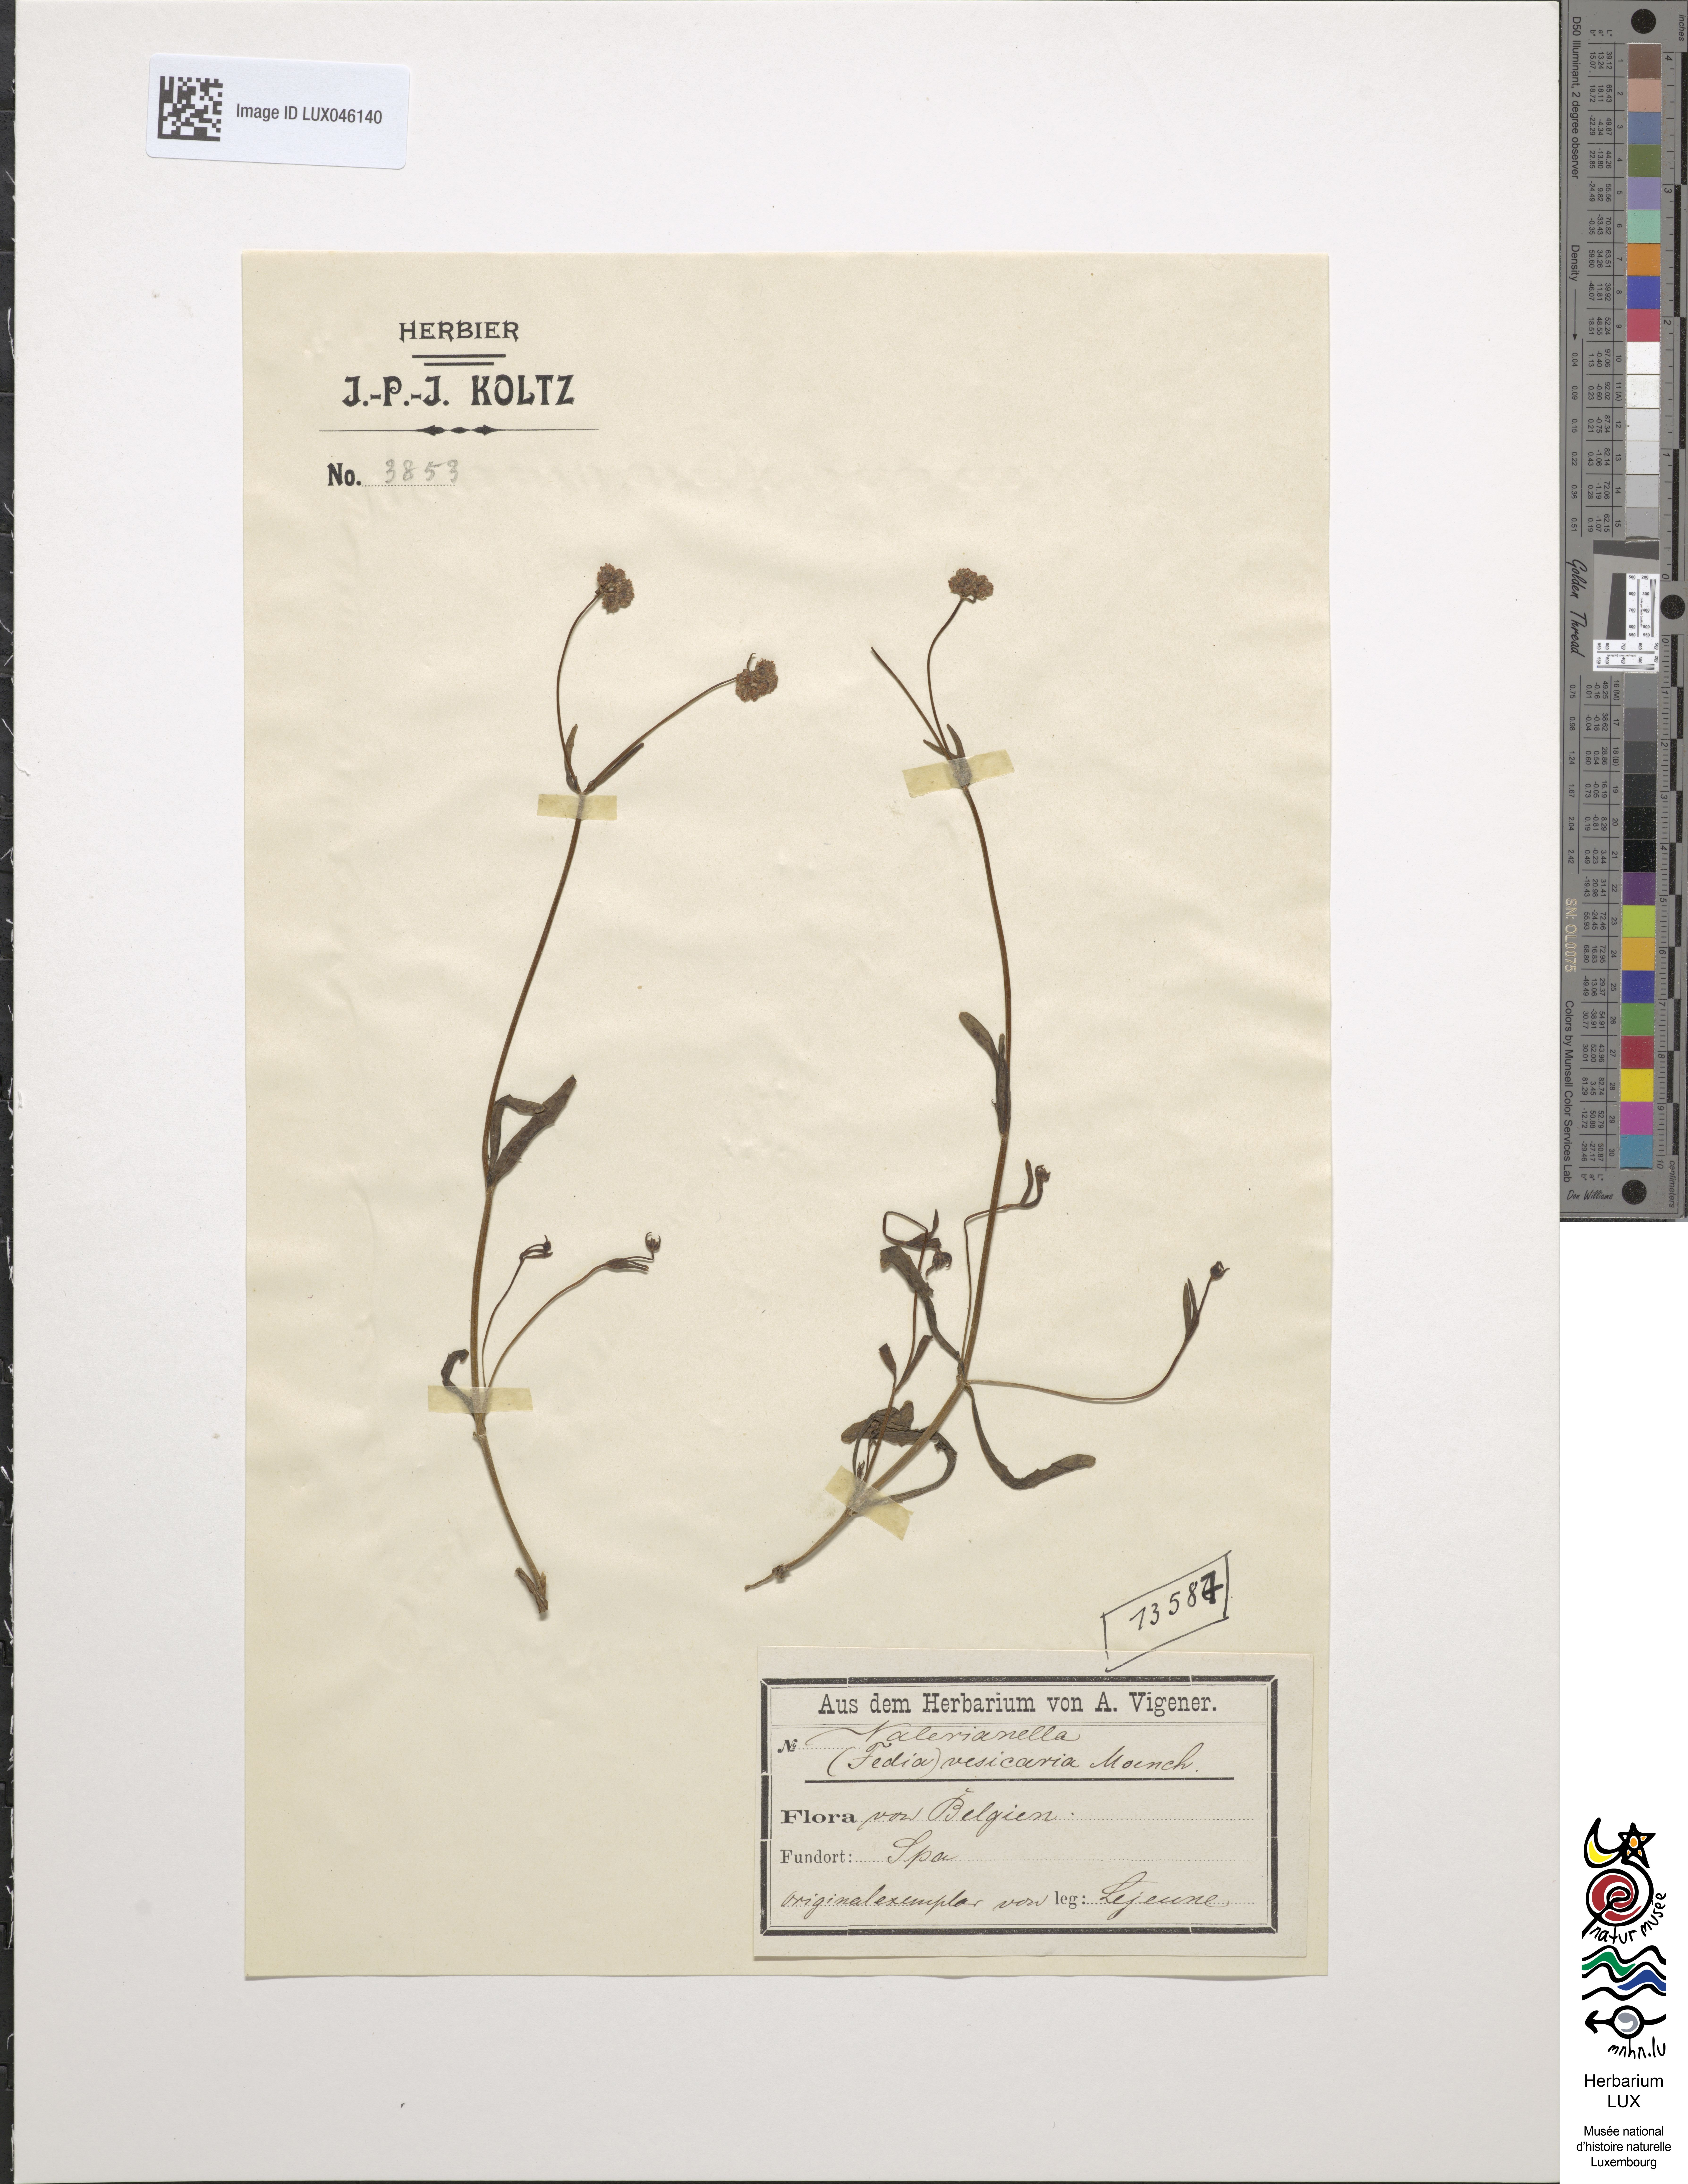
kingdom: Plantae
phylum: Tracheophyta
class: Magnoliopsida
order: Dipsacales
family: Caprifoliaceae
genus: Valerianella
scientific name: Valerianella vesicaria
